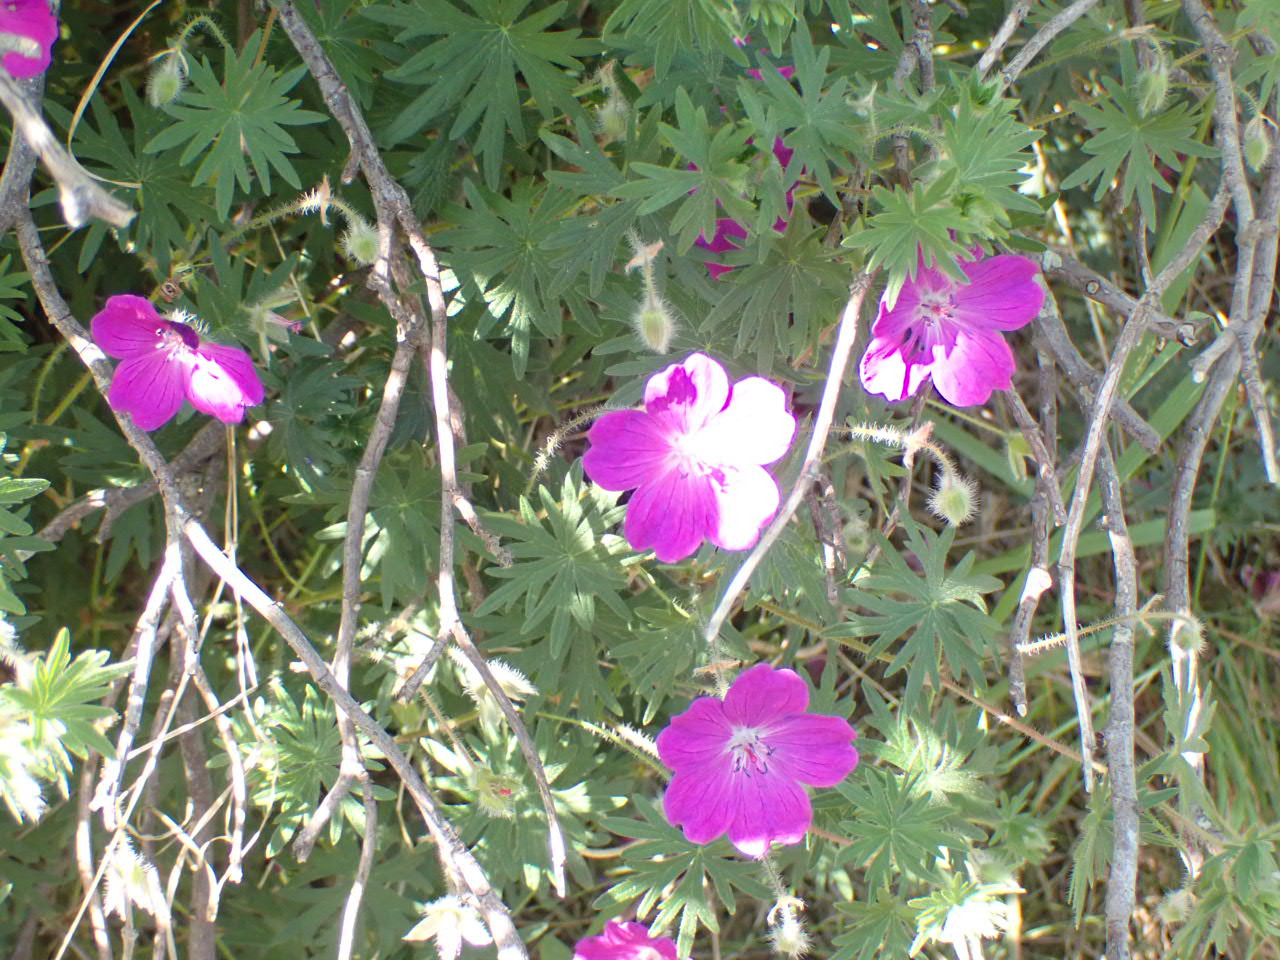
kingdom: Plantae
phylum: Tracheophyta
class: Magnoliopsida
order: Geraniales
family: Geraniaceae
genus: Geranium
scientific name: Geranium sanguineum
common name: Blodrød storkenæb
